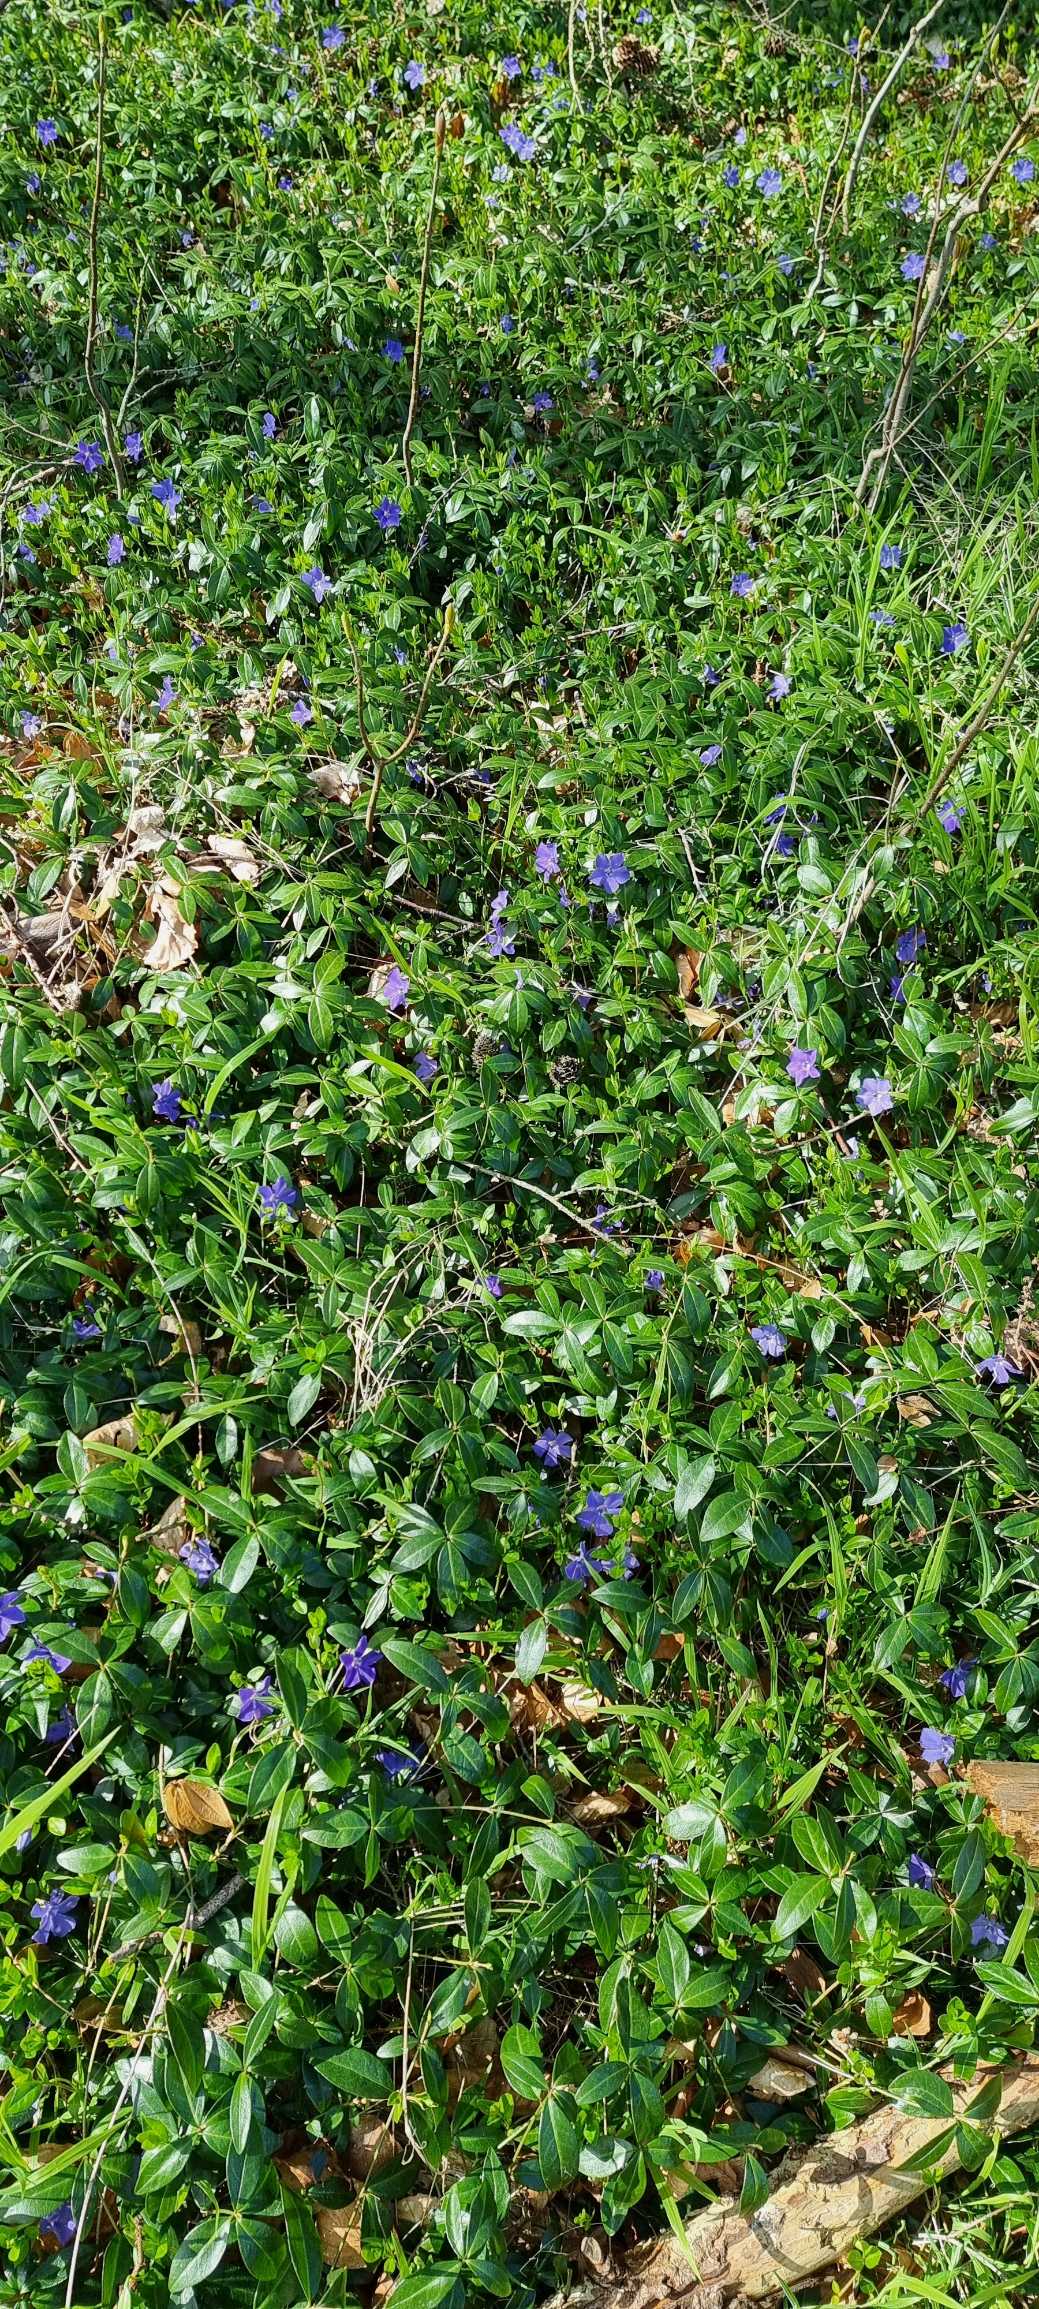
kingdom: Plantae
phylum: Tracheophyta
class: Magnoliopsida
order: Gentianales
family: Apocynaceae
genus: Vinca
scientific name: Vinca minor
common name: Liden singrøn
